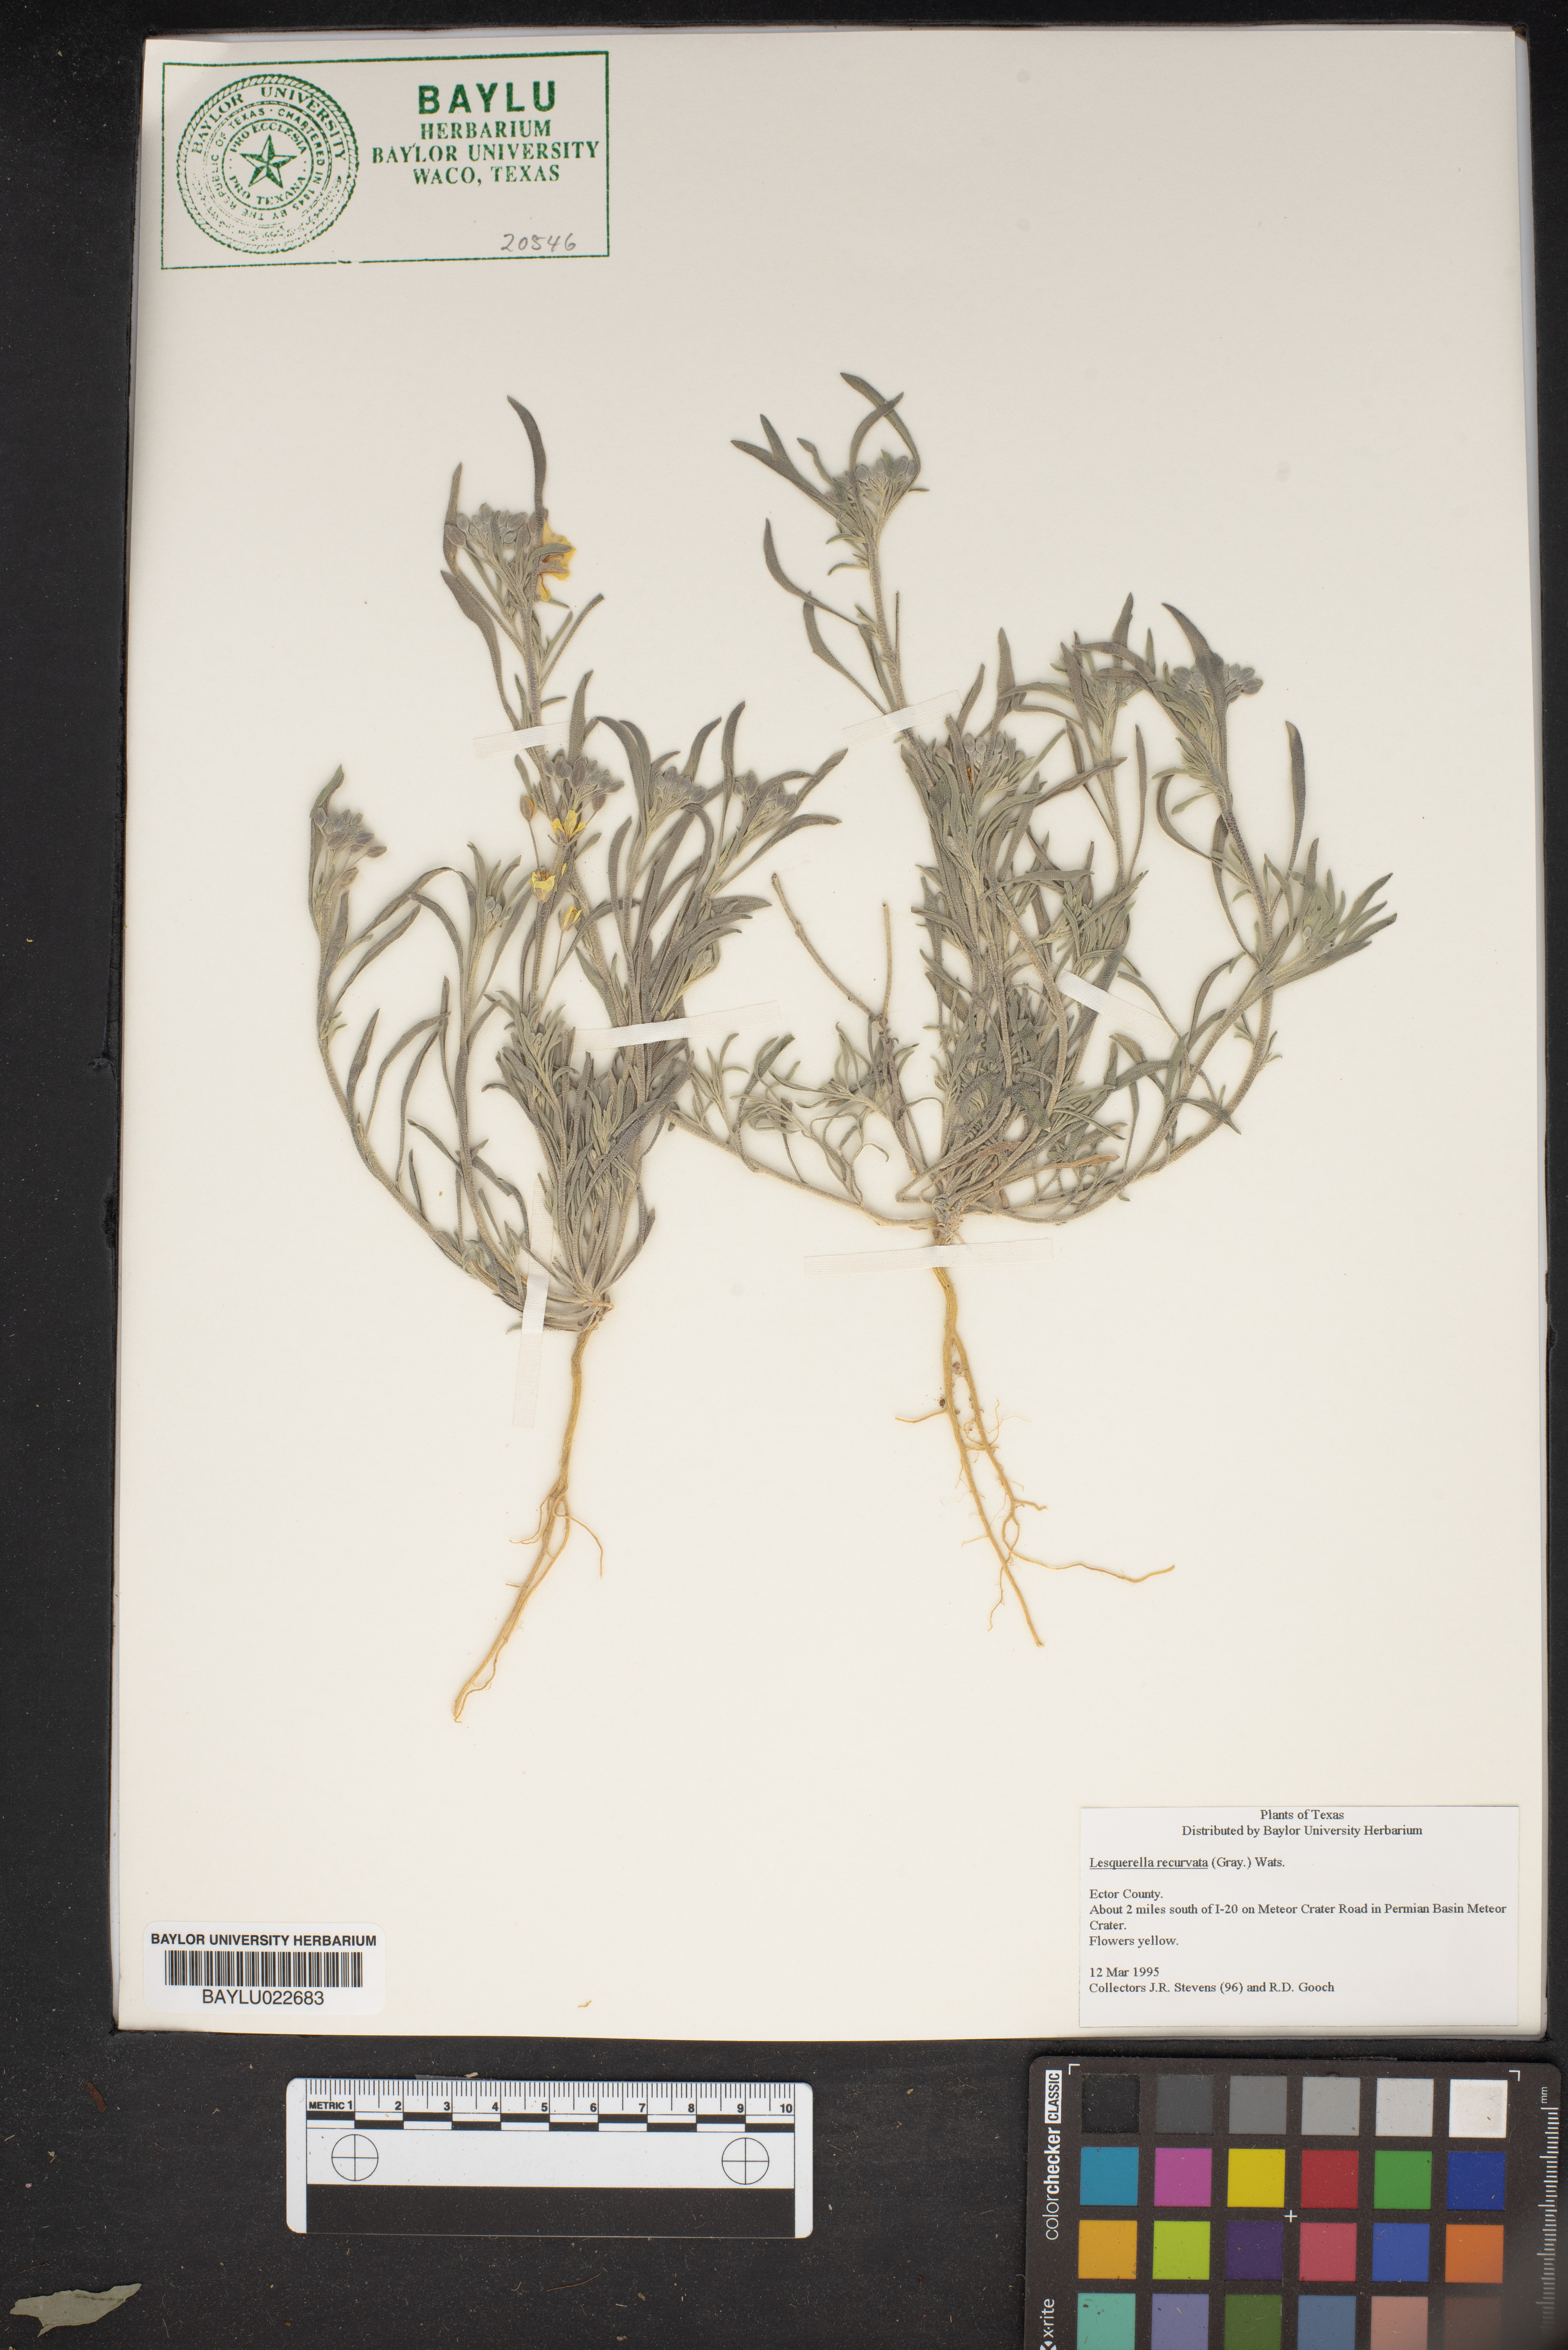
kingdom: Plantae
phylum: Tracheophyta
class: Magnoliopsida
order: Brassicales
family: Brassicaceae
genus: Physaria
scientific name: Physaria recurvata
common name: Gaslight bladderpod
